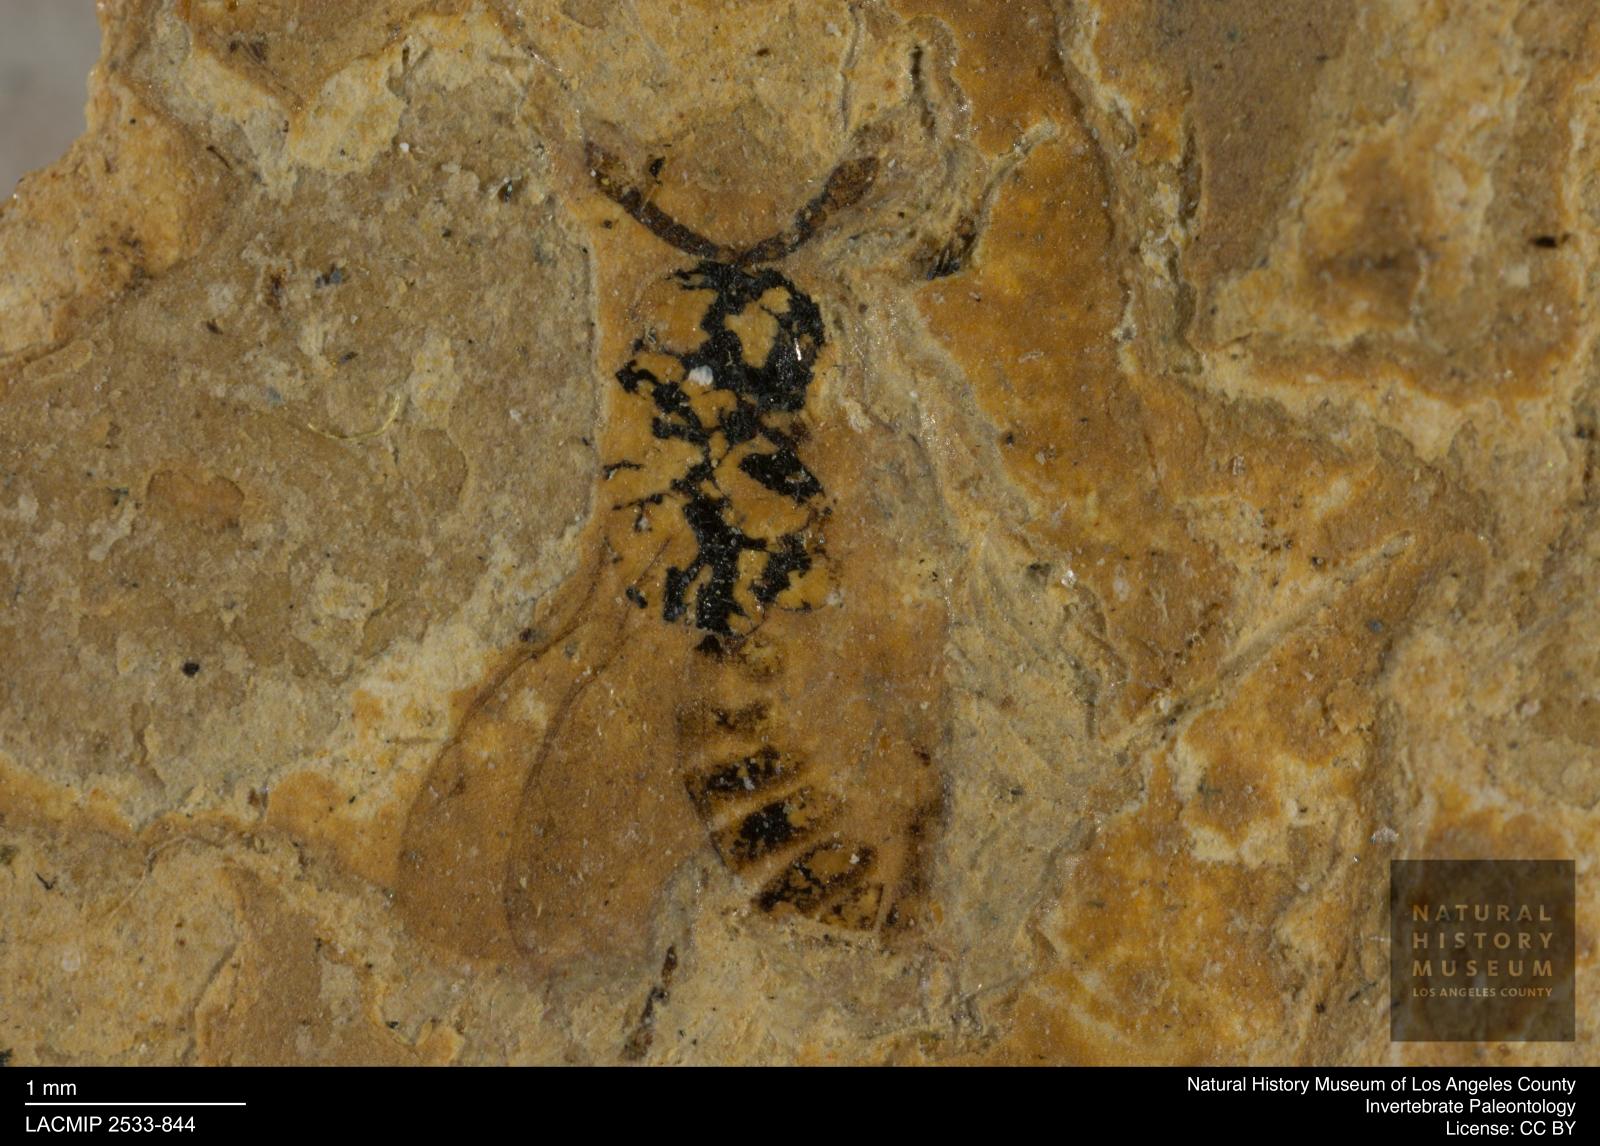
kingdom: Animalia
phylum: Arthropoda
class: Insecta
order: Hymenoptera
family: Pteromalidae
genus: Trichomalus
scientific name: Trichomalus germanus
